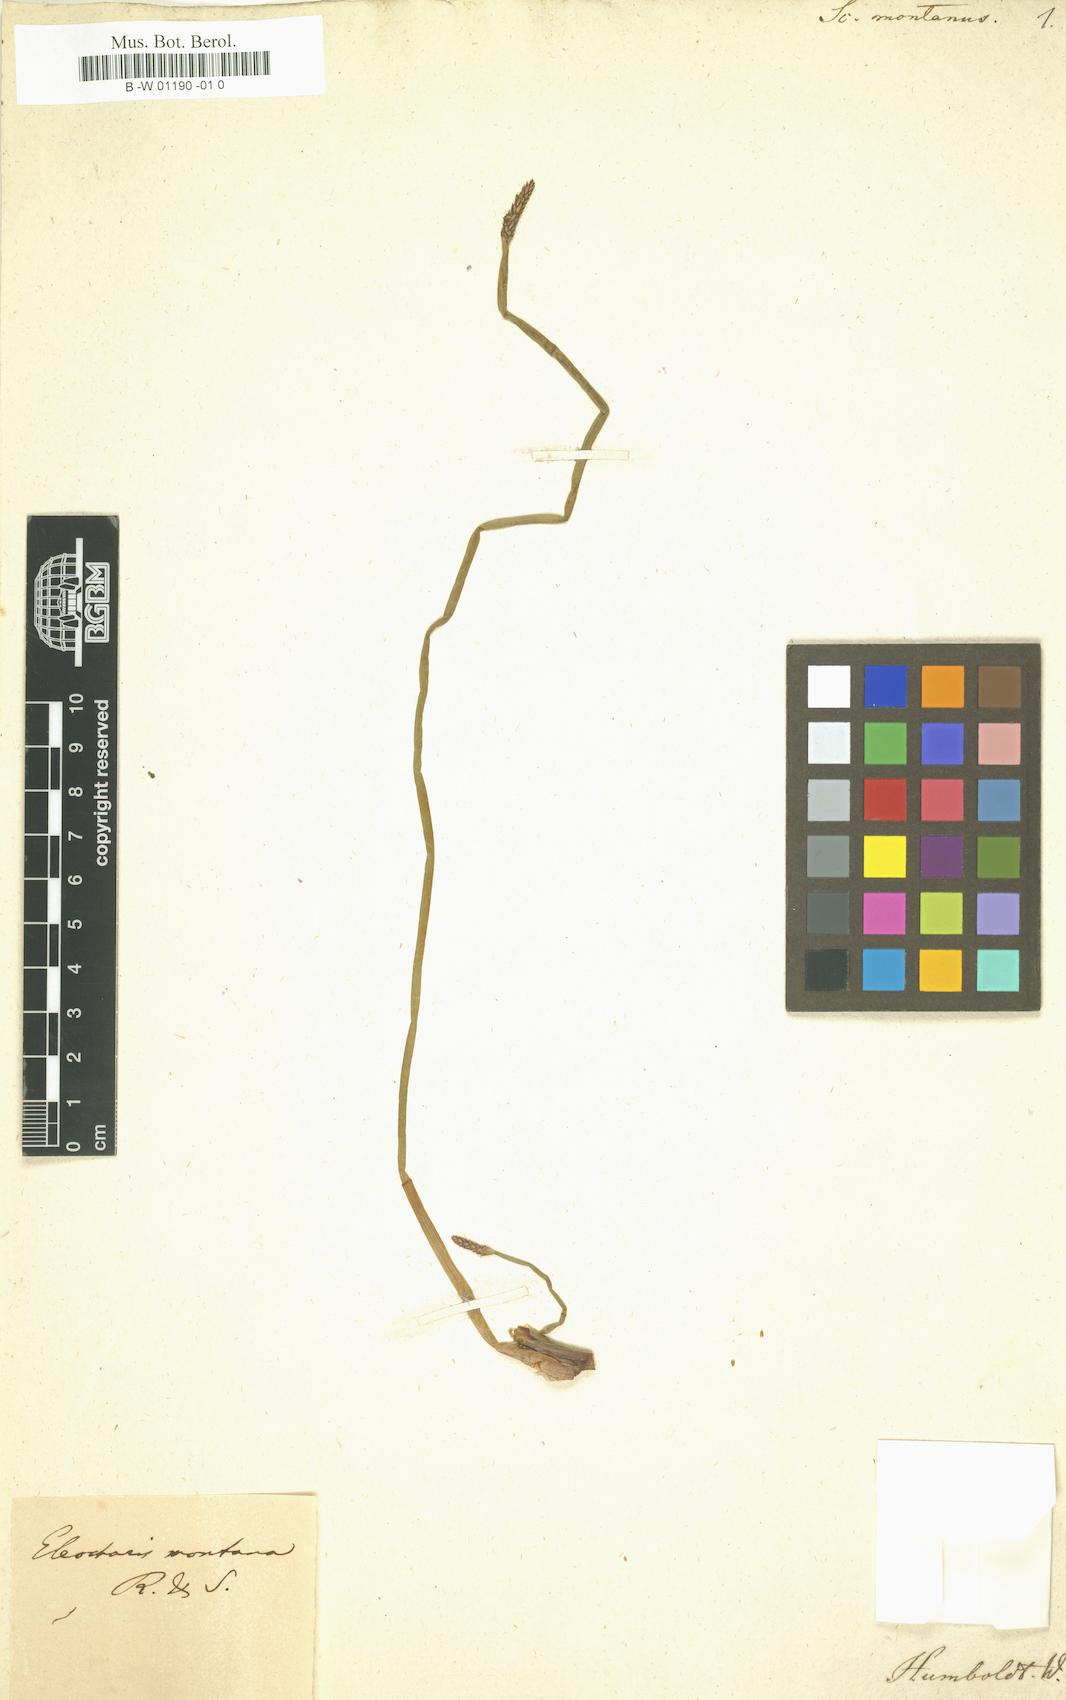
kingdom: Plantae
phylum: Tracheophyta
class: Liliopsida
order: Poales
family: Cyperaceae
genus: Eleocharis
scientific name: Eleocharis montana
